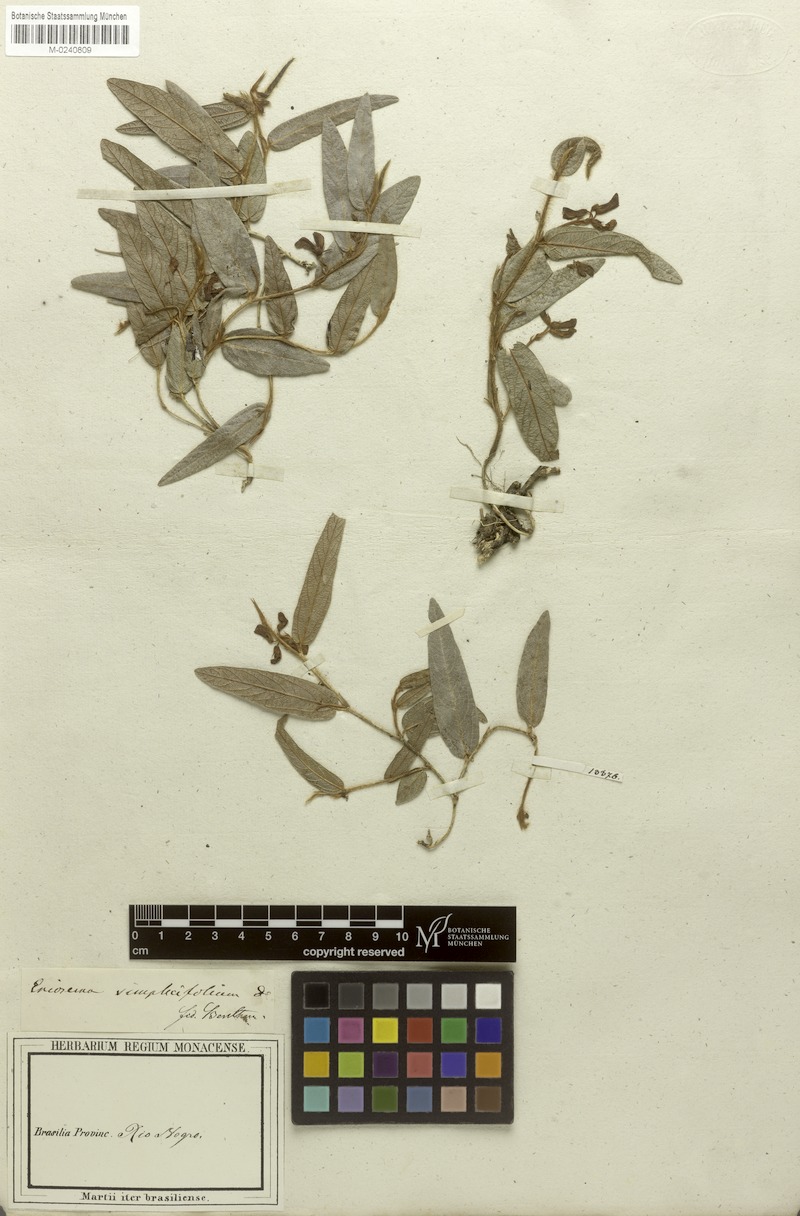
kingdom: Plantae
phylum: Tracheophyta
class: Magnoliopsida
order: Fabales
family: Fabaceae
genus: Eriosema
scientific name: Eriosema simplicifolium
